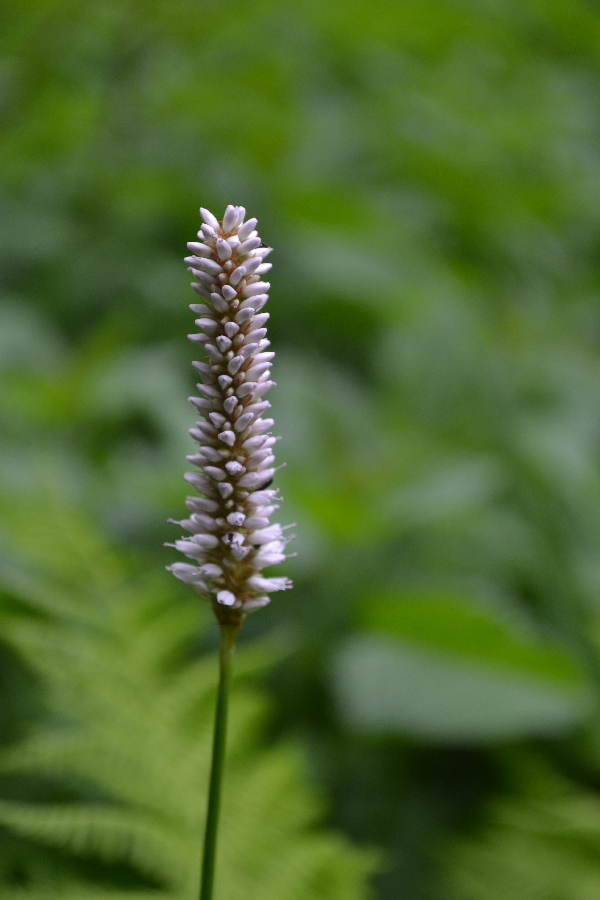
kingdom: Plantae
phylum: Tracheophyta
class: Magnoliopsida
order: Caryophyllales
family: Polygonaceae
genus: Bistorta
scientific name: Bistorta officinalis
